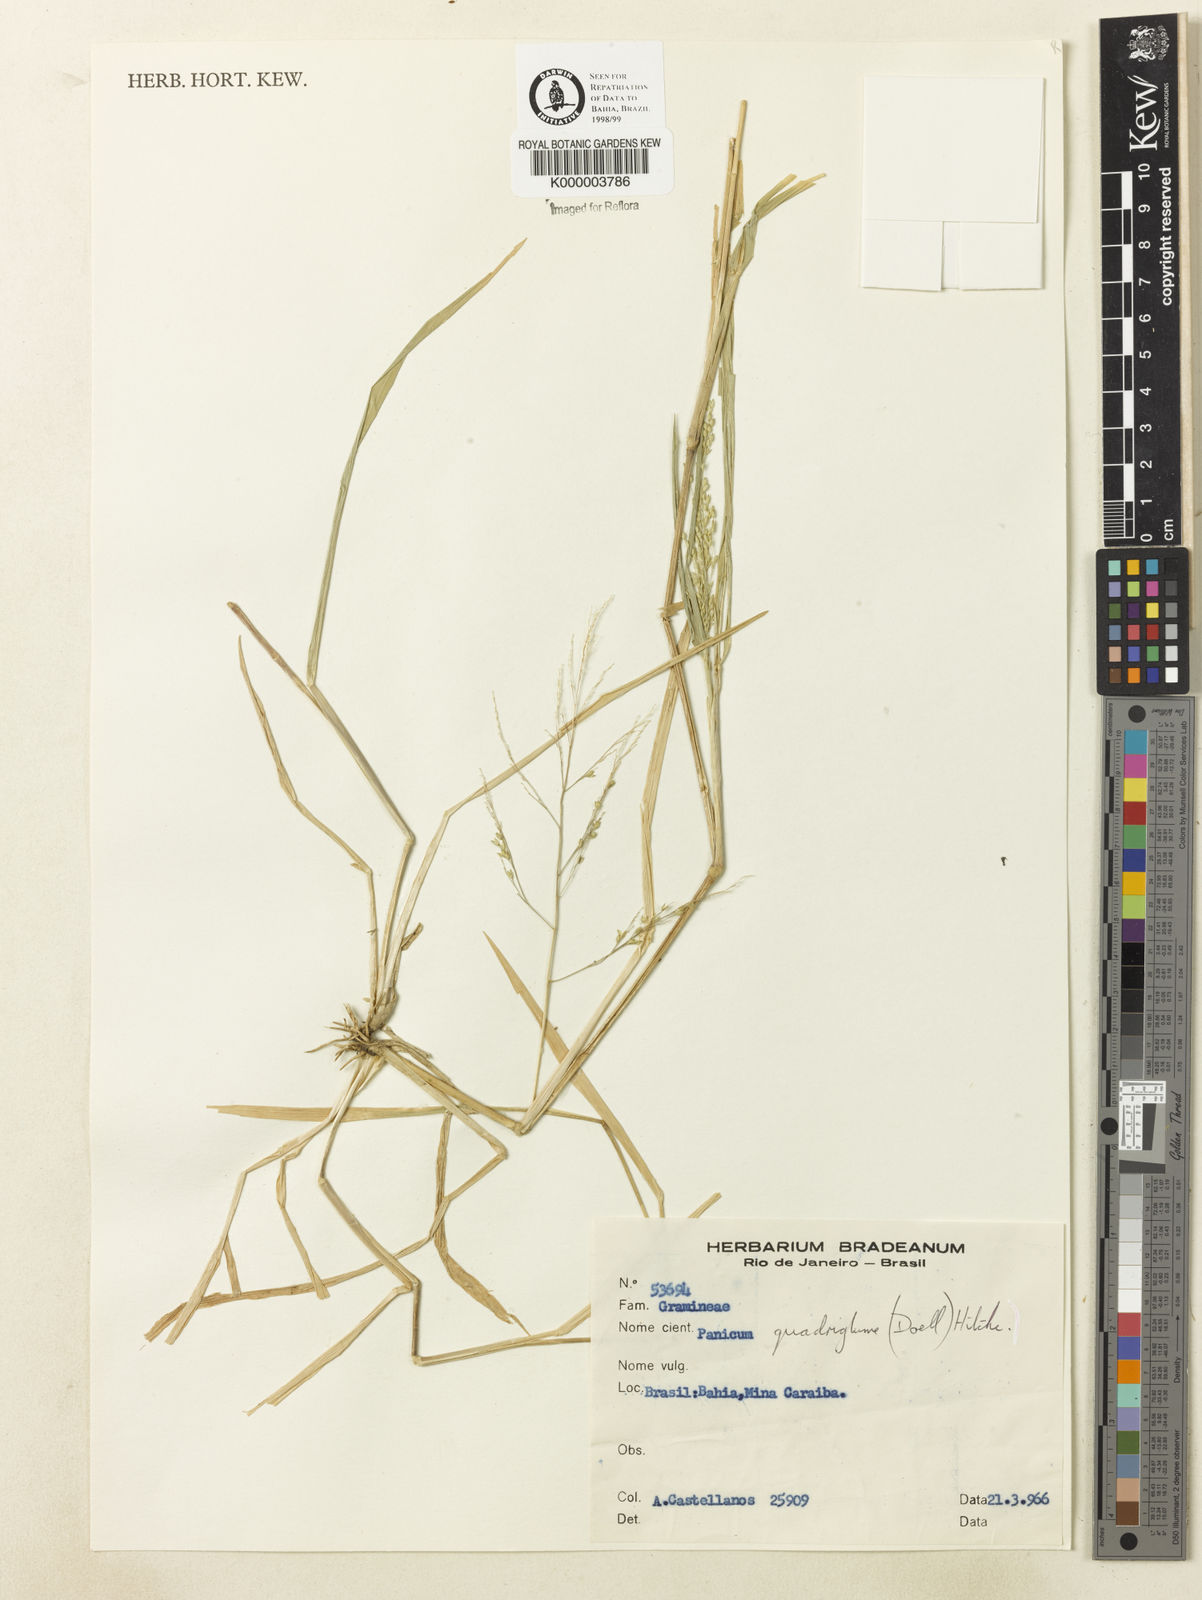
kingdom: Plantae
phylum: Tracheophyta
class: Liliopsida
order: Poales
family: Poaceae
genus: Panicum
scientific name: Panicum hirticaule
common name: Rough-stalk witchgrass
